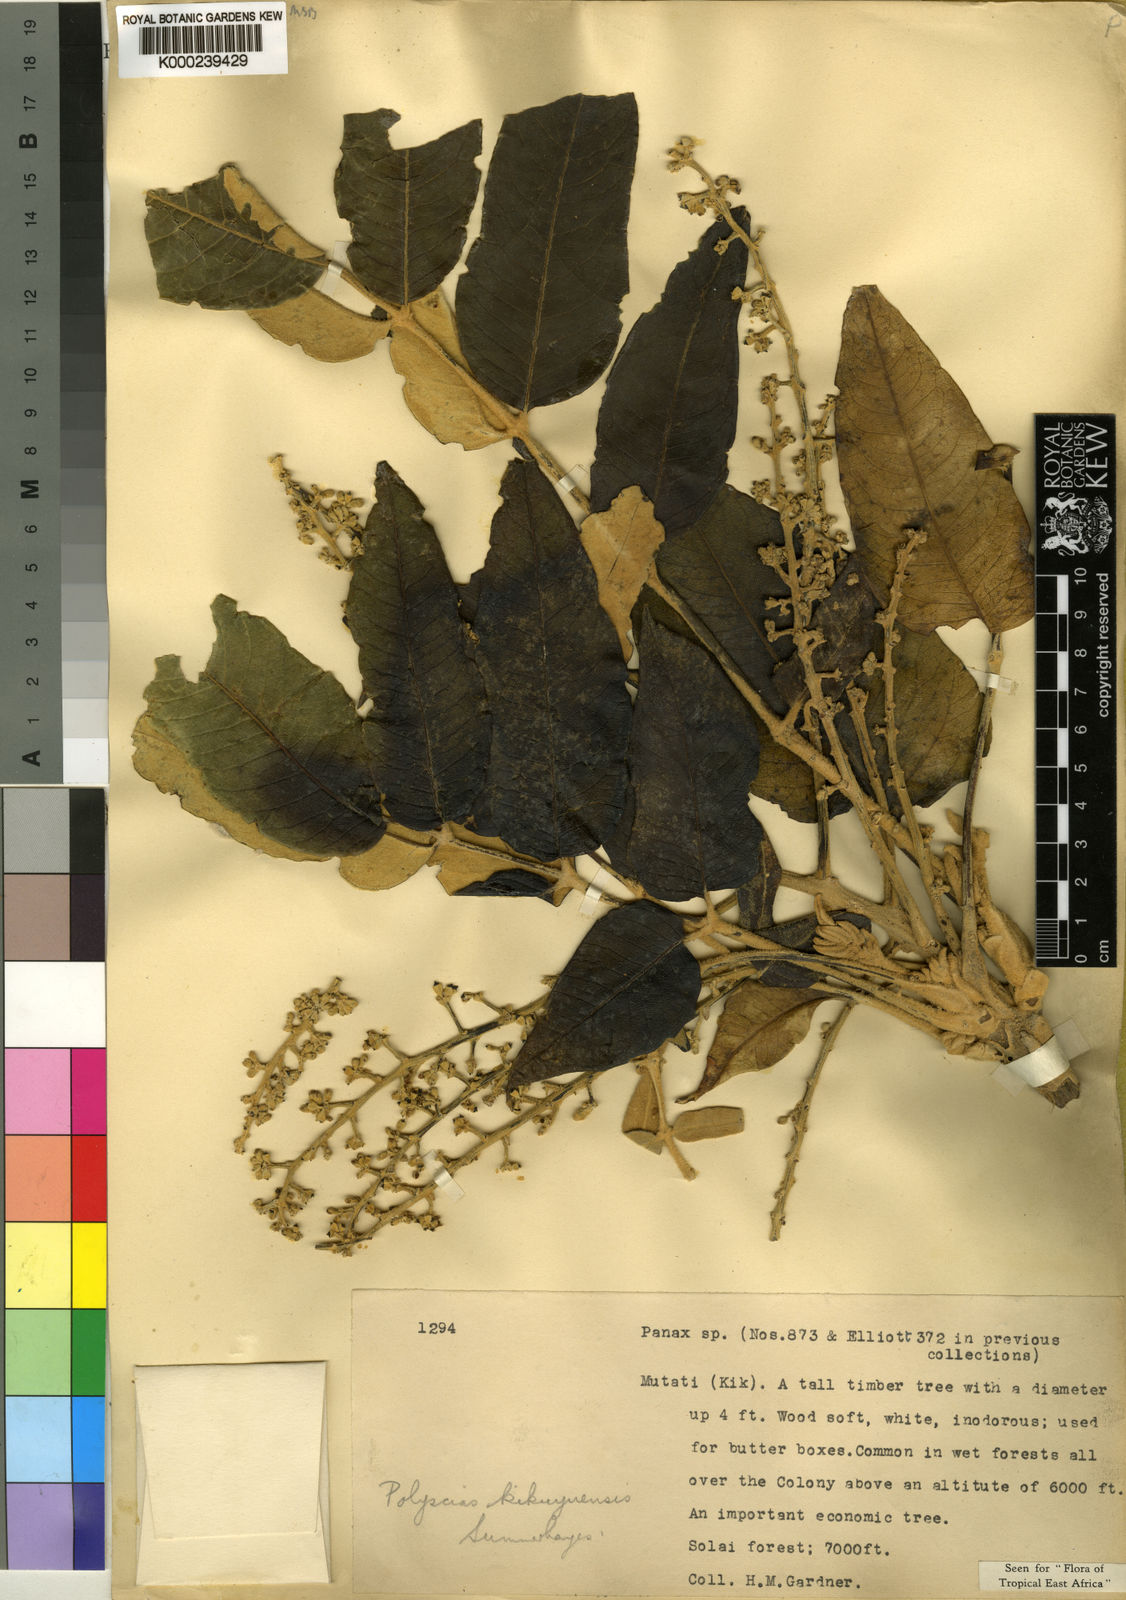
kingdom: Plantae
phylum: Tracheophyta
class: Magnoliopsida
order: Apiales
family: Araliaceae
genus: Polyscias
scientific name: Polyscias kikuyuensis
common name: Parasol tree
